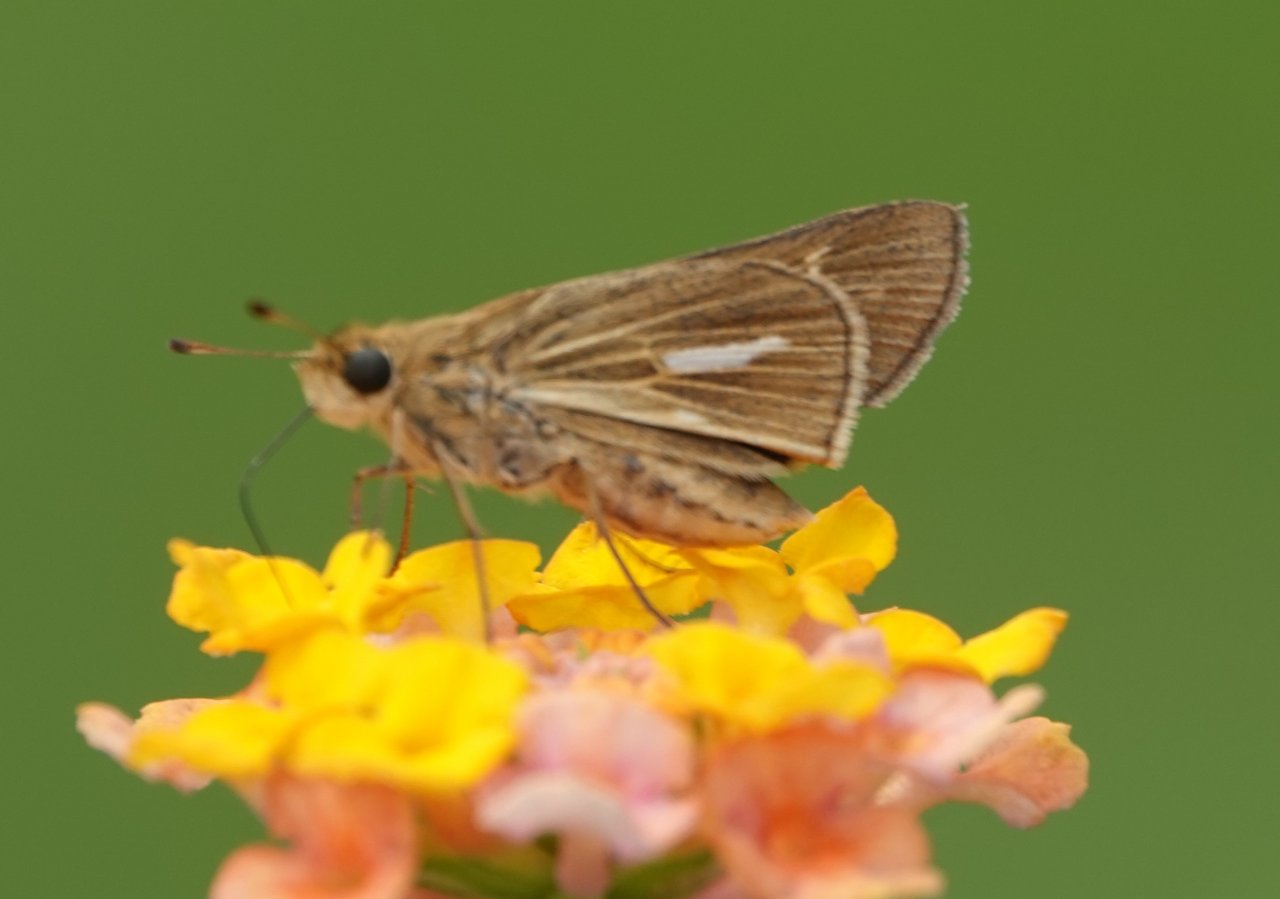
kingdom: Animalia
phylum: Arthropoda
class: Insecta
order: Lepidoptera
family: Hesperiidae
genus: Panoquina
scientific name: Panoquina panoquin
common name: Salt Marsh Skipper
